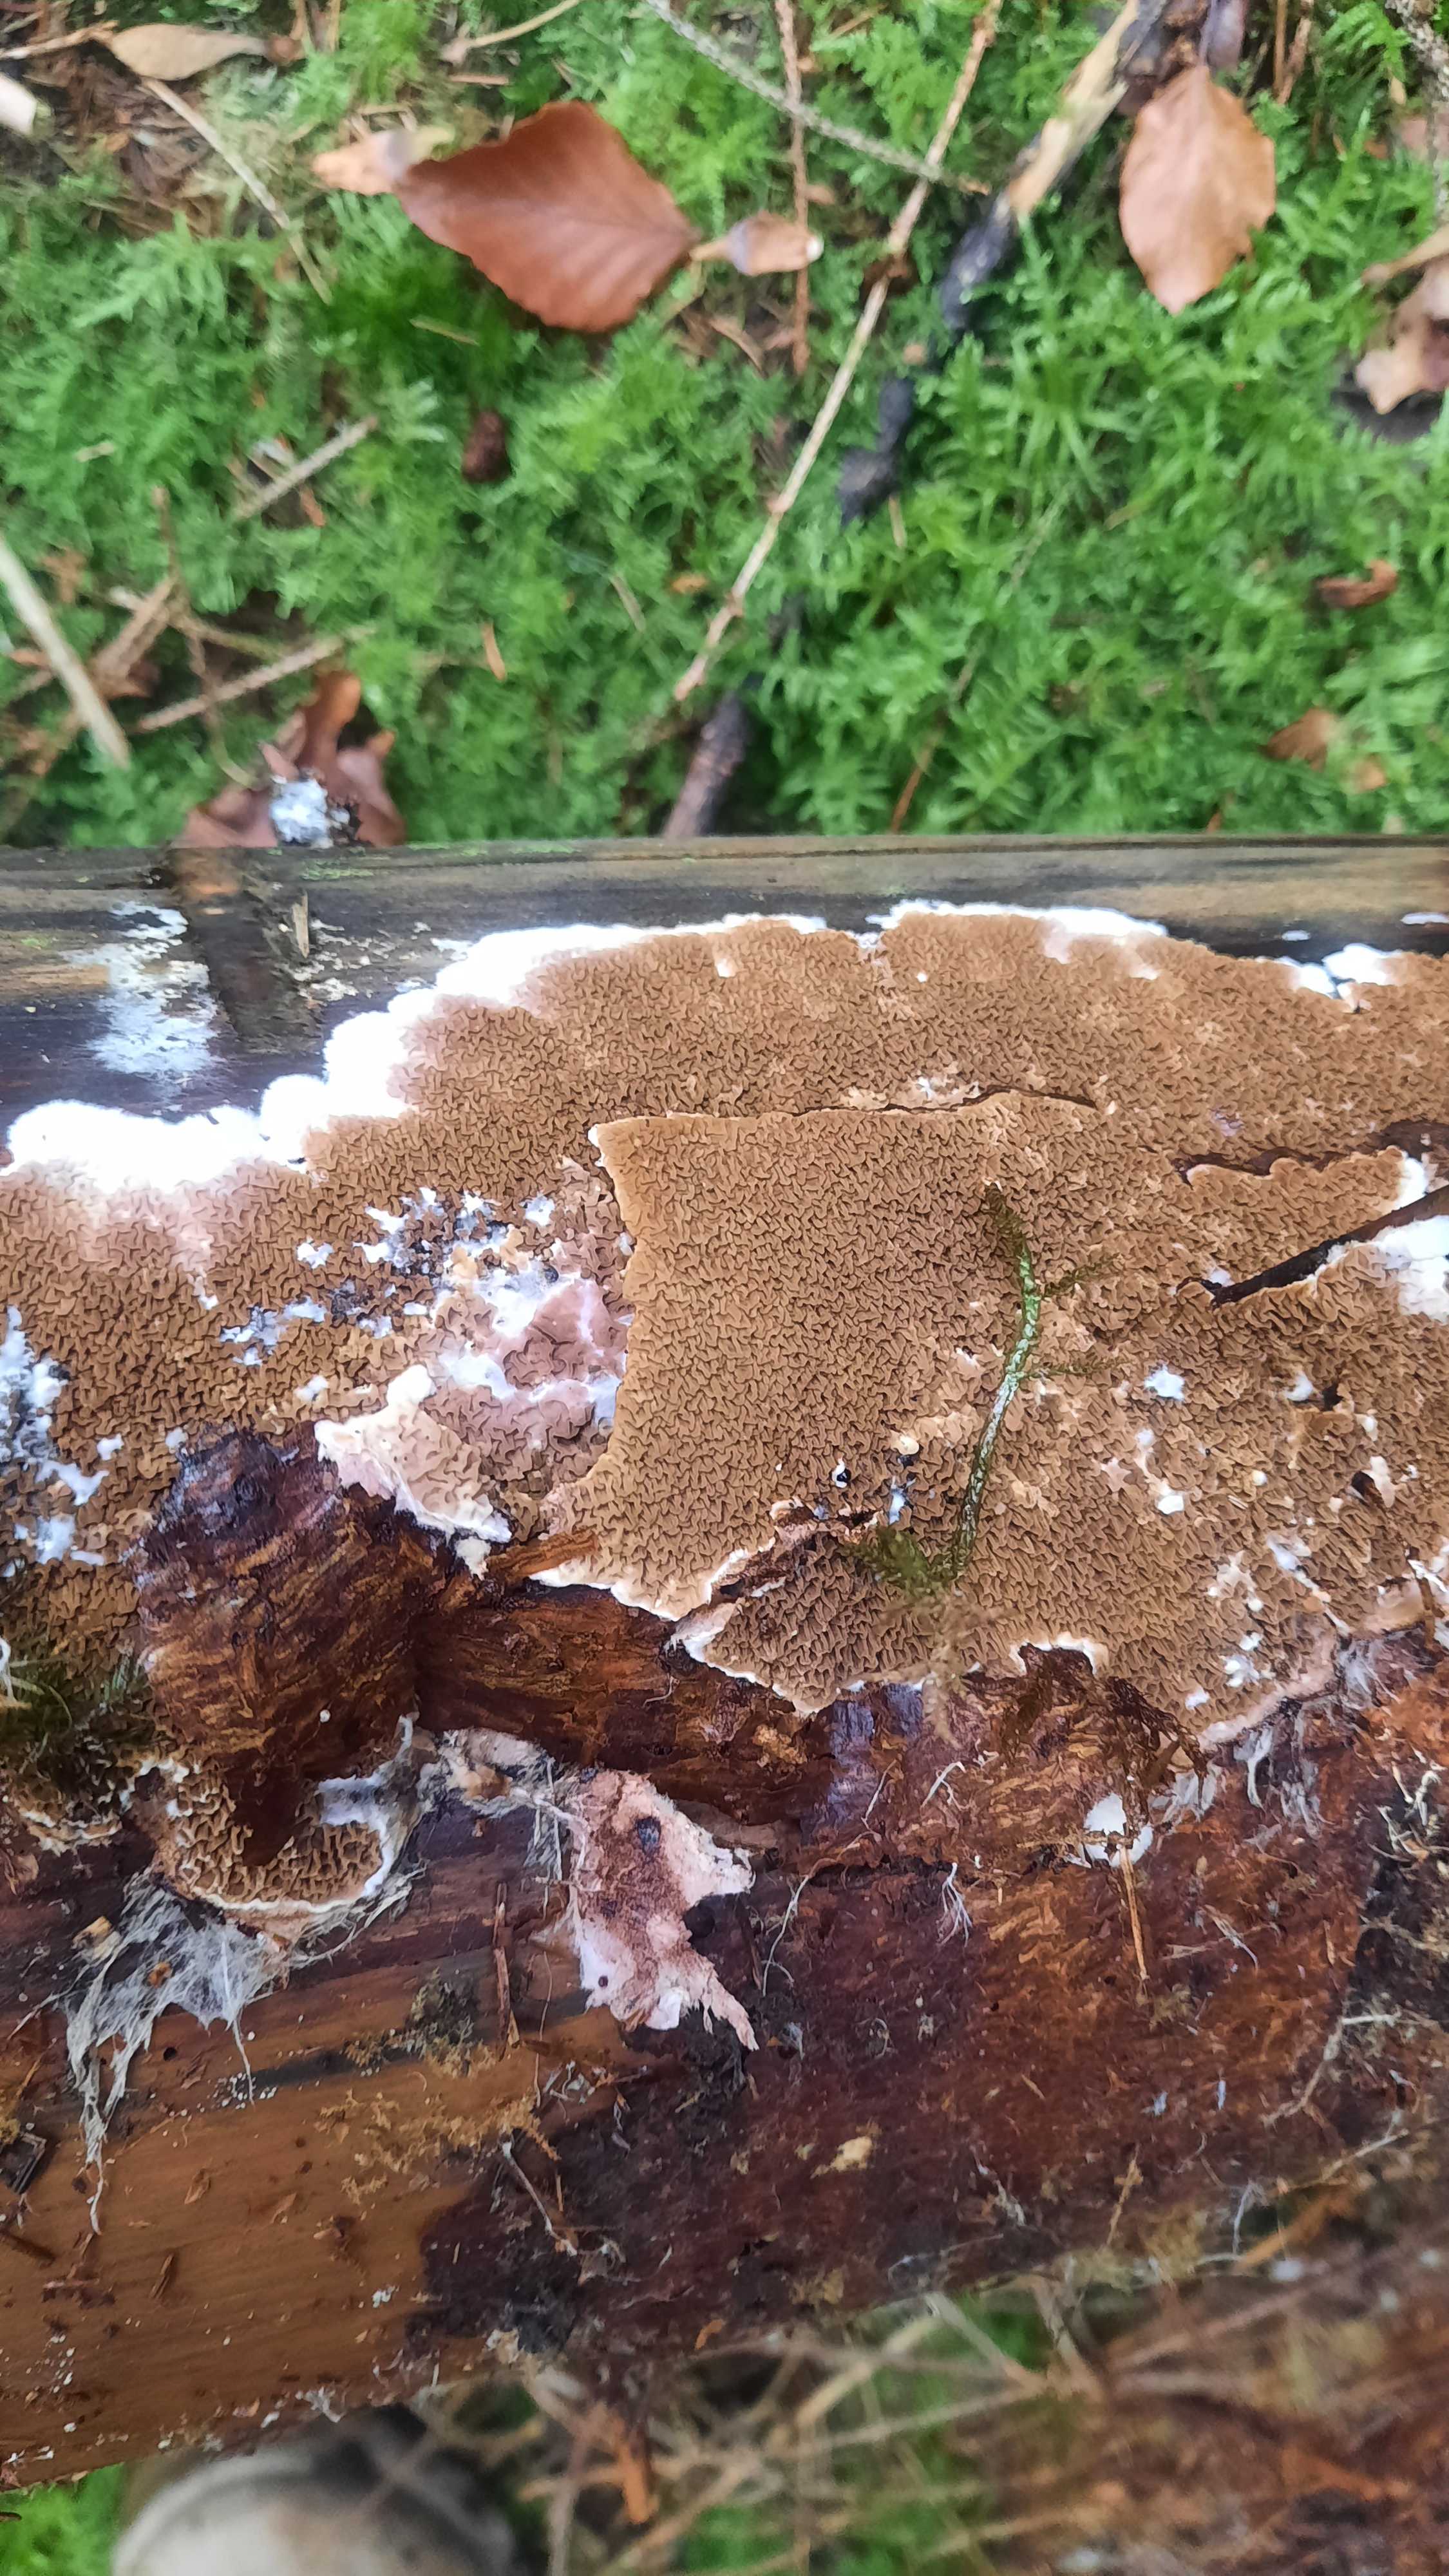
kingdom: Fungi
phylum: Basidiomycota
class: Agaricomycetes
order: Boletales
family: Serpulaceae
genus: Serpula
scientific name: Serpula himantioides
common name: tyndkødet hussvamp
